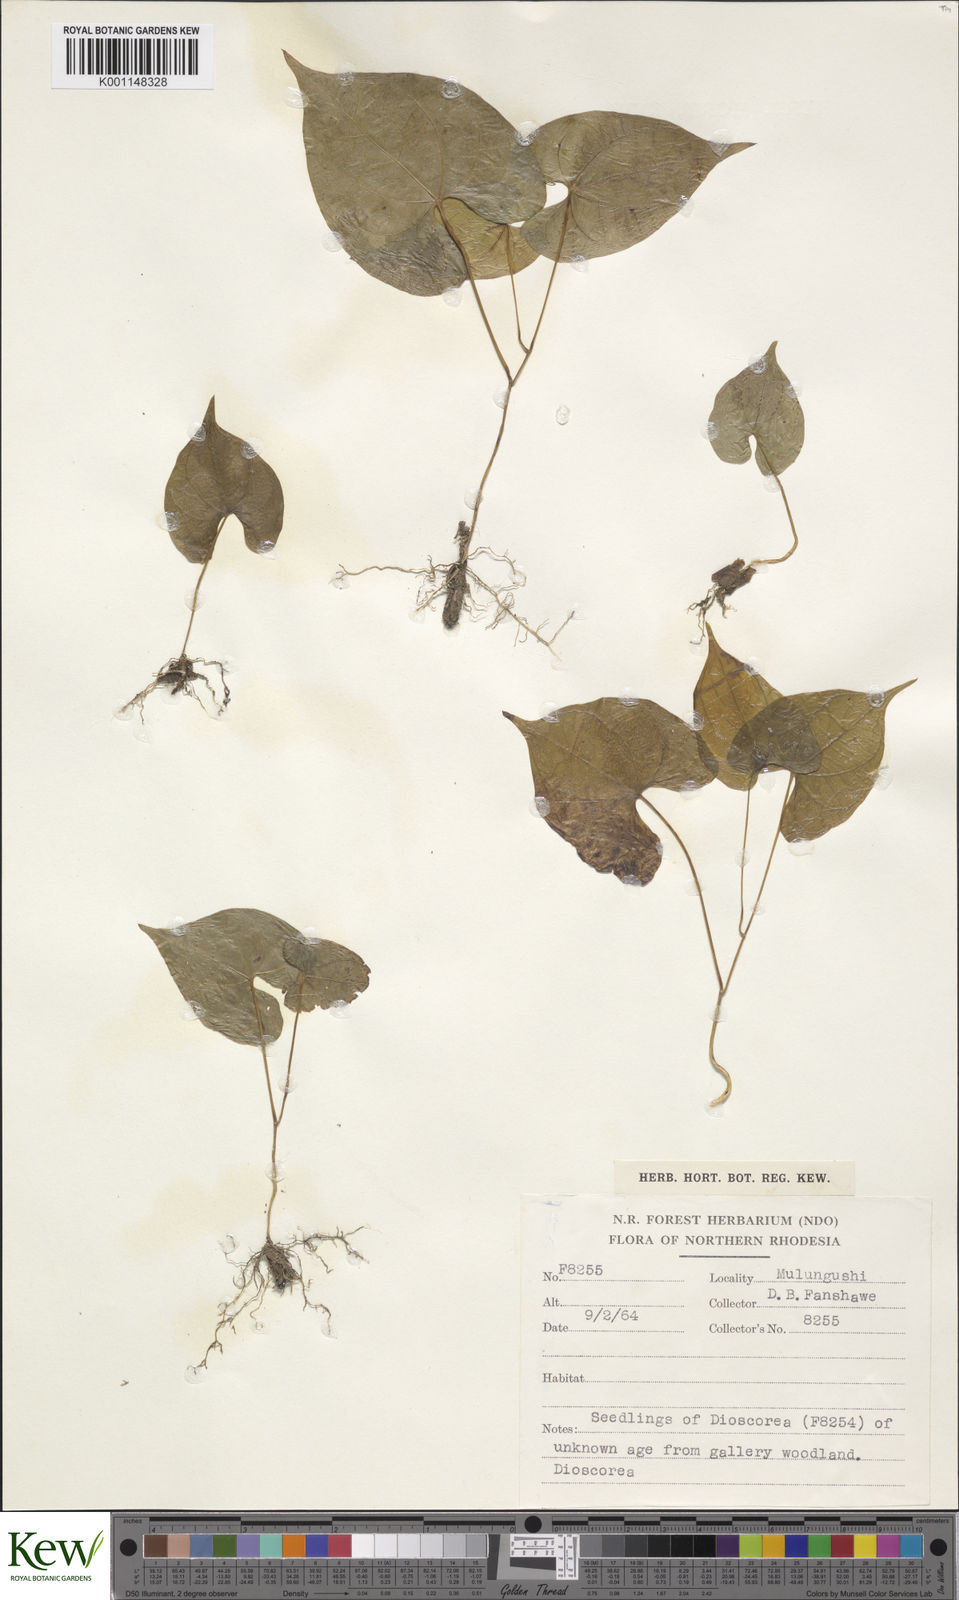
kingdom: Plantae
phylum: Tracheophyta
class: Liliopsida
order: Dioscoreales
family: Dioscoreaceae
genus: Dioscorea
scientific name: Dioscorea
